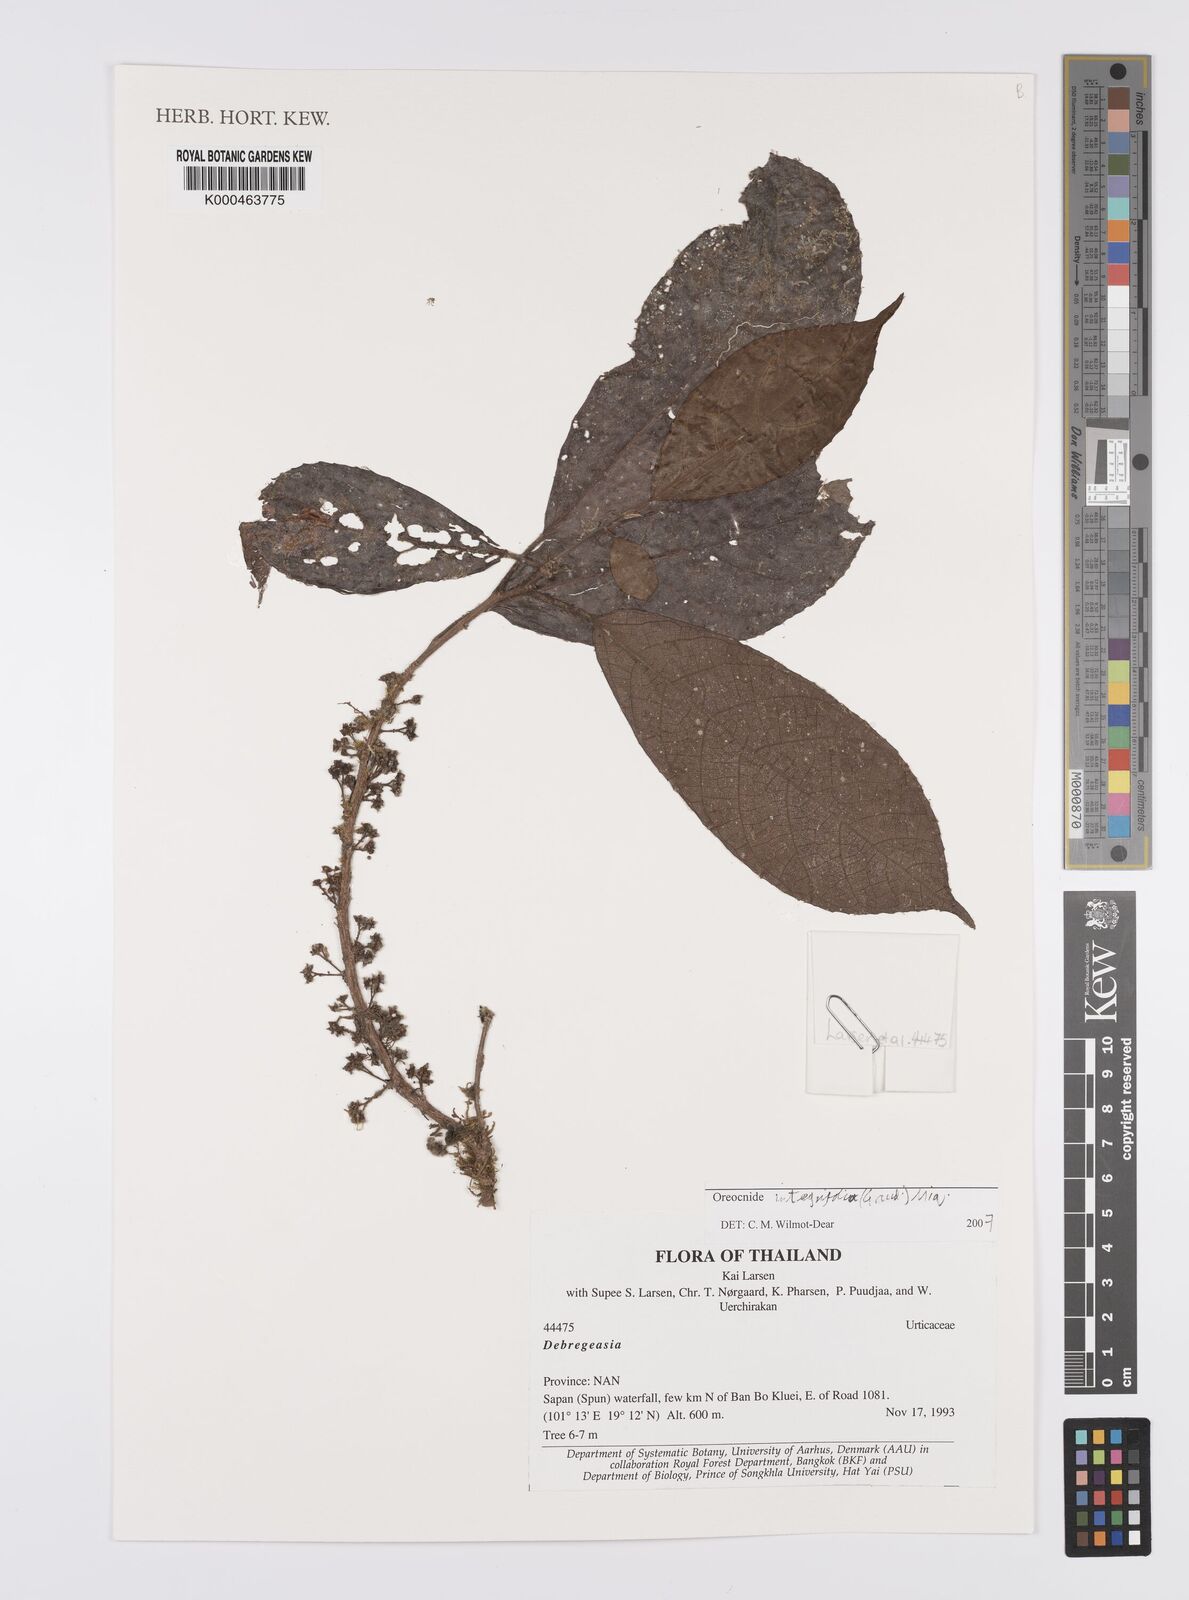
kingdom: Plantae
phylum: Tracheophyta
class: Magnoliopsida
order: Rosales
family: Urticaceae
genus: Oreocnide
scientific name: Oreocnide integrifolia
